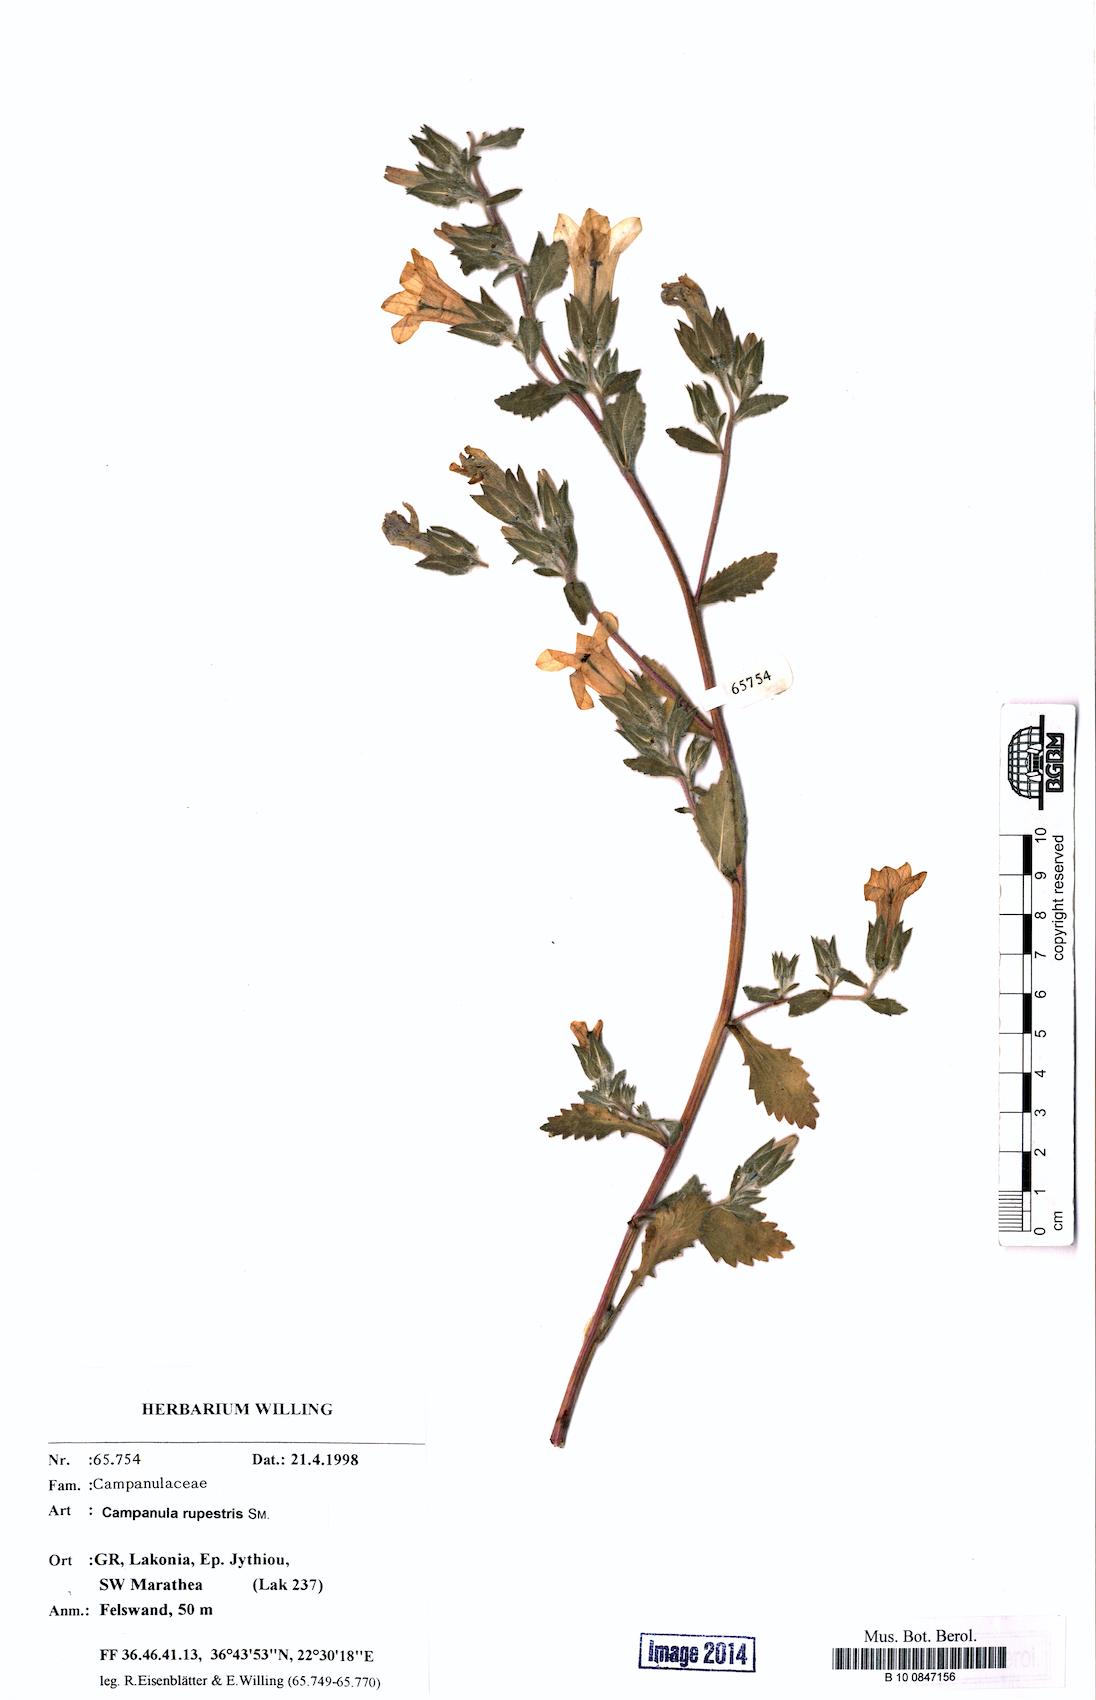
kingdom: Plantae
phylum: Tracheophyta
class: Magnoliopsida
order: Asterales
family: Campanulaceae
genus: Campanula
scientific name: Campanula rupestris
